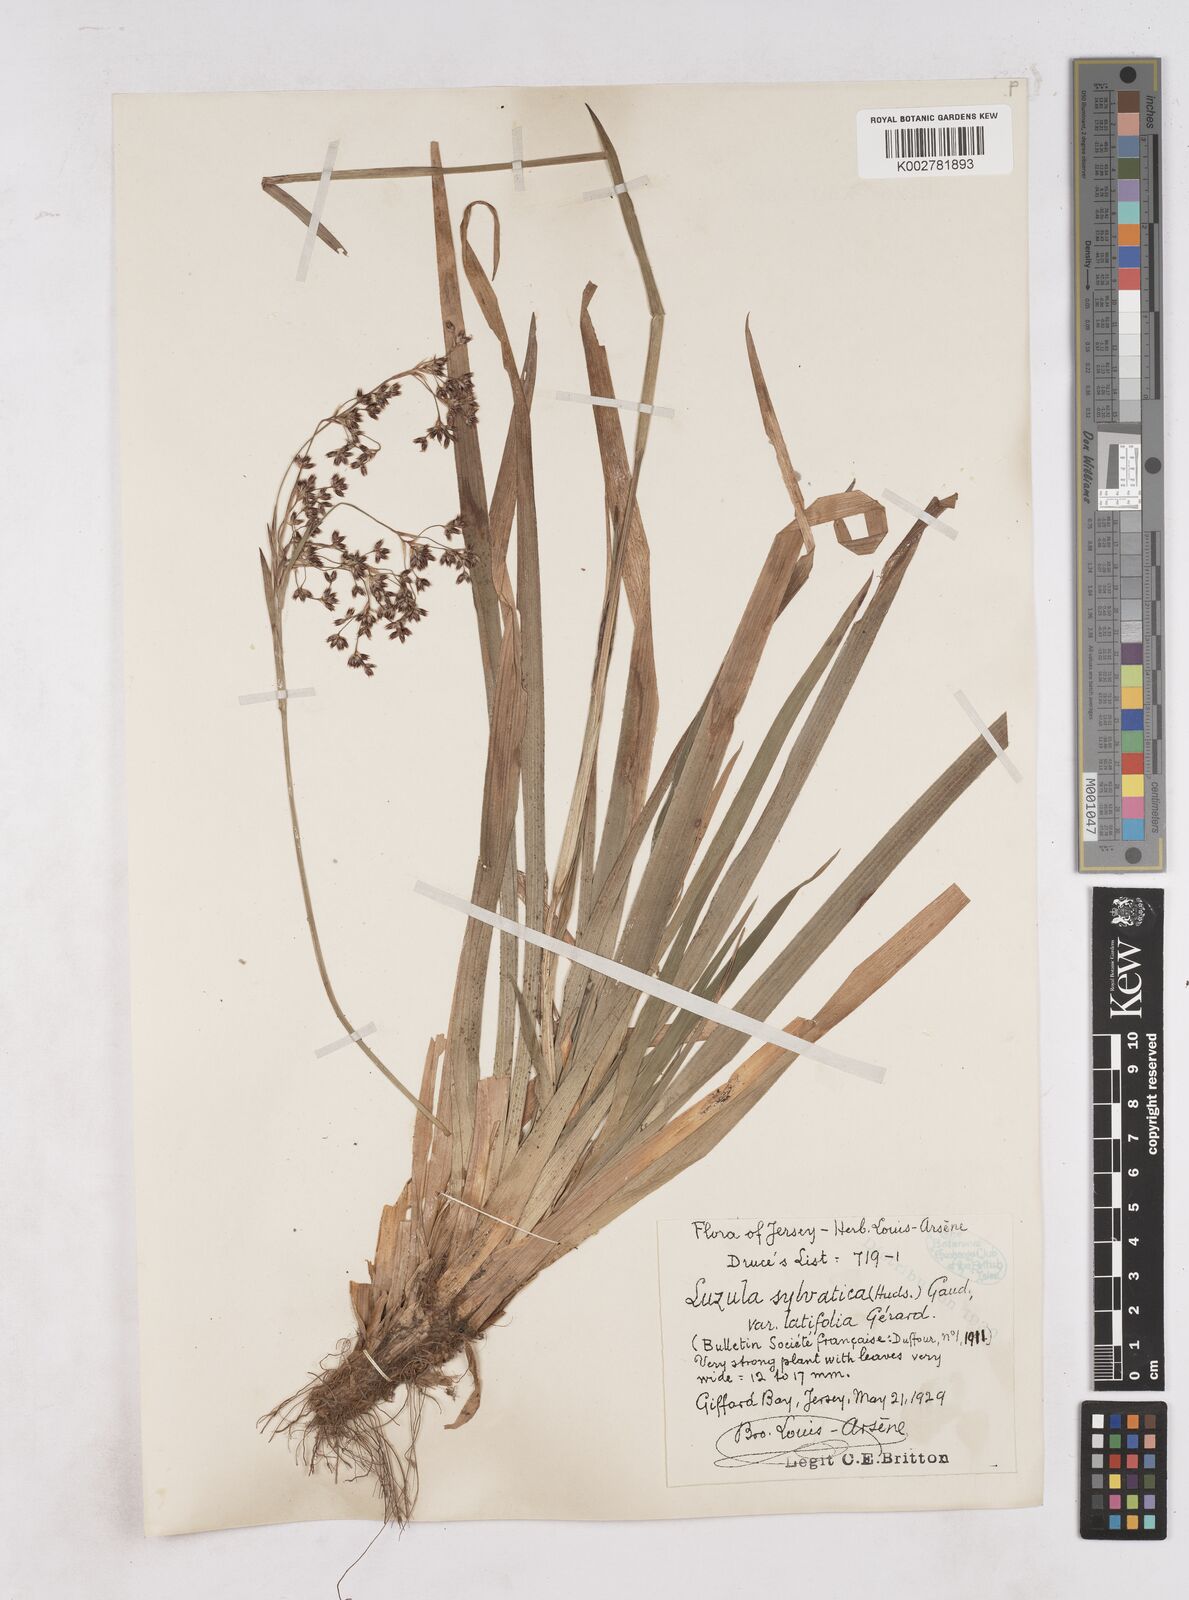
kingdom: Plantae
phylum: Tracheophyta
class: Liliopsida
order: Poales
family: Juncaceae
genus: Luzula
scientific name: Luzula sylvatica
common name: Great wood-rush
